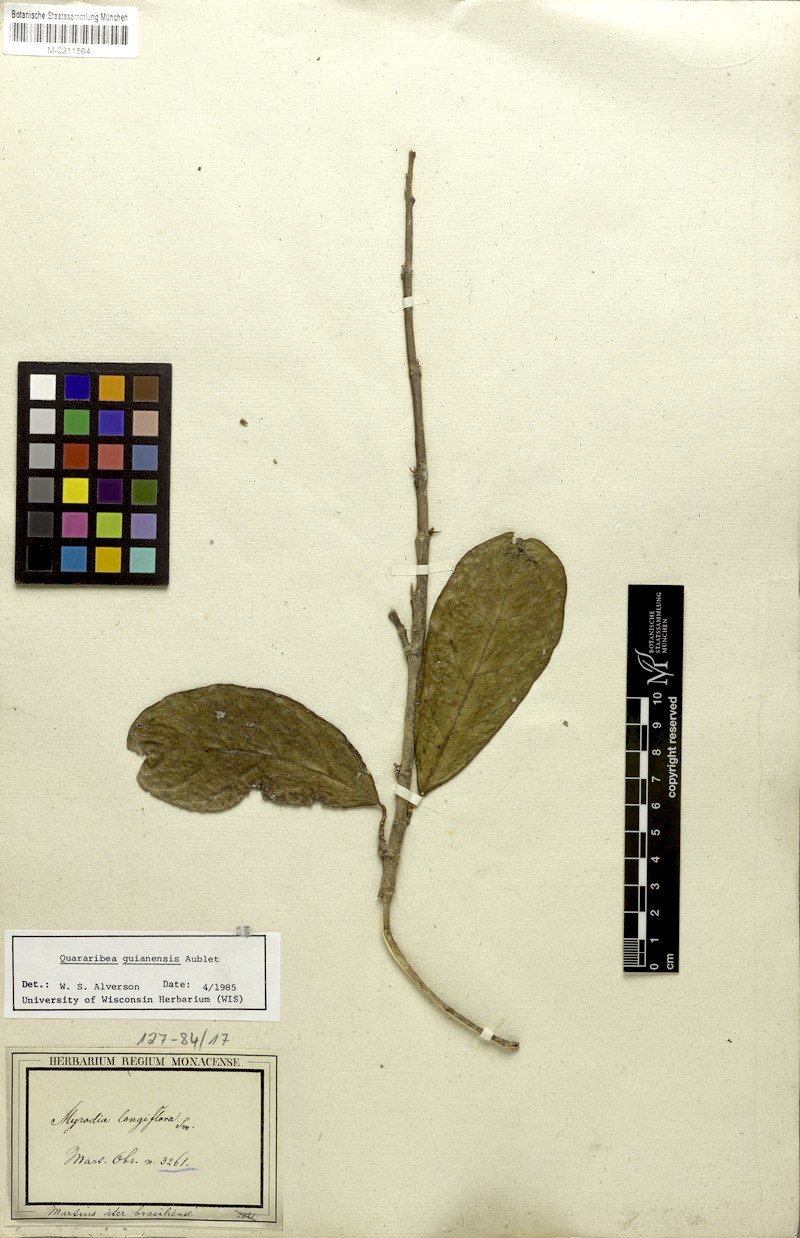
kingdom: Plantae
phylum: Tracheophyta
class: Magnoliopsida
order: Malvales
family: Malvaceae
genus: Quararibea
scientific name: Quararibea guianensis
